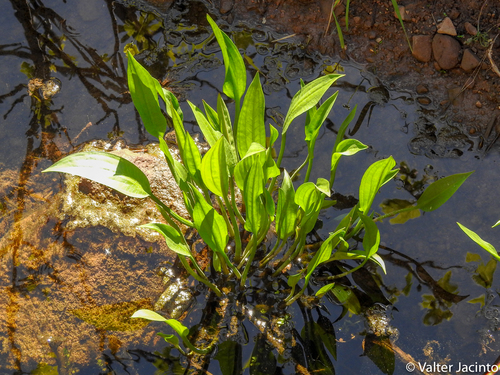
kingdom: Plantae
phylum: Tracheophyta
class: Liliopsida
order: Alismatales
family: Alismataceae
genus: Alisma
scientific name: Alisma lanceolatum
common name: Narrow-leaved water-plantain
